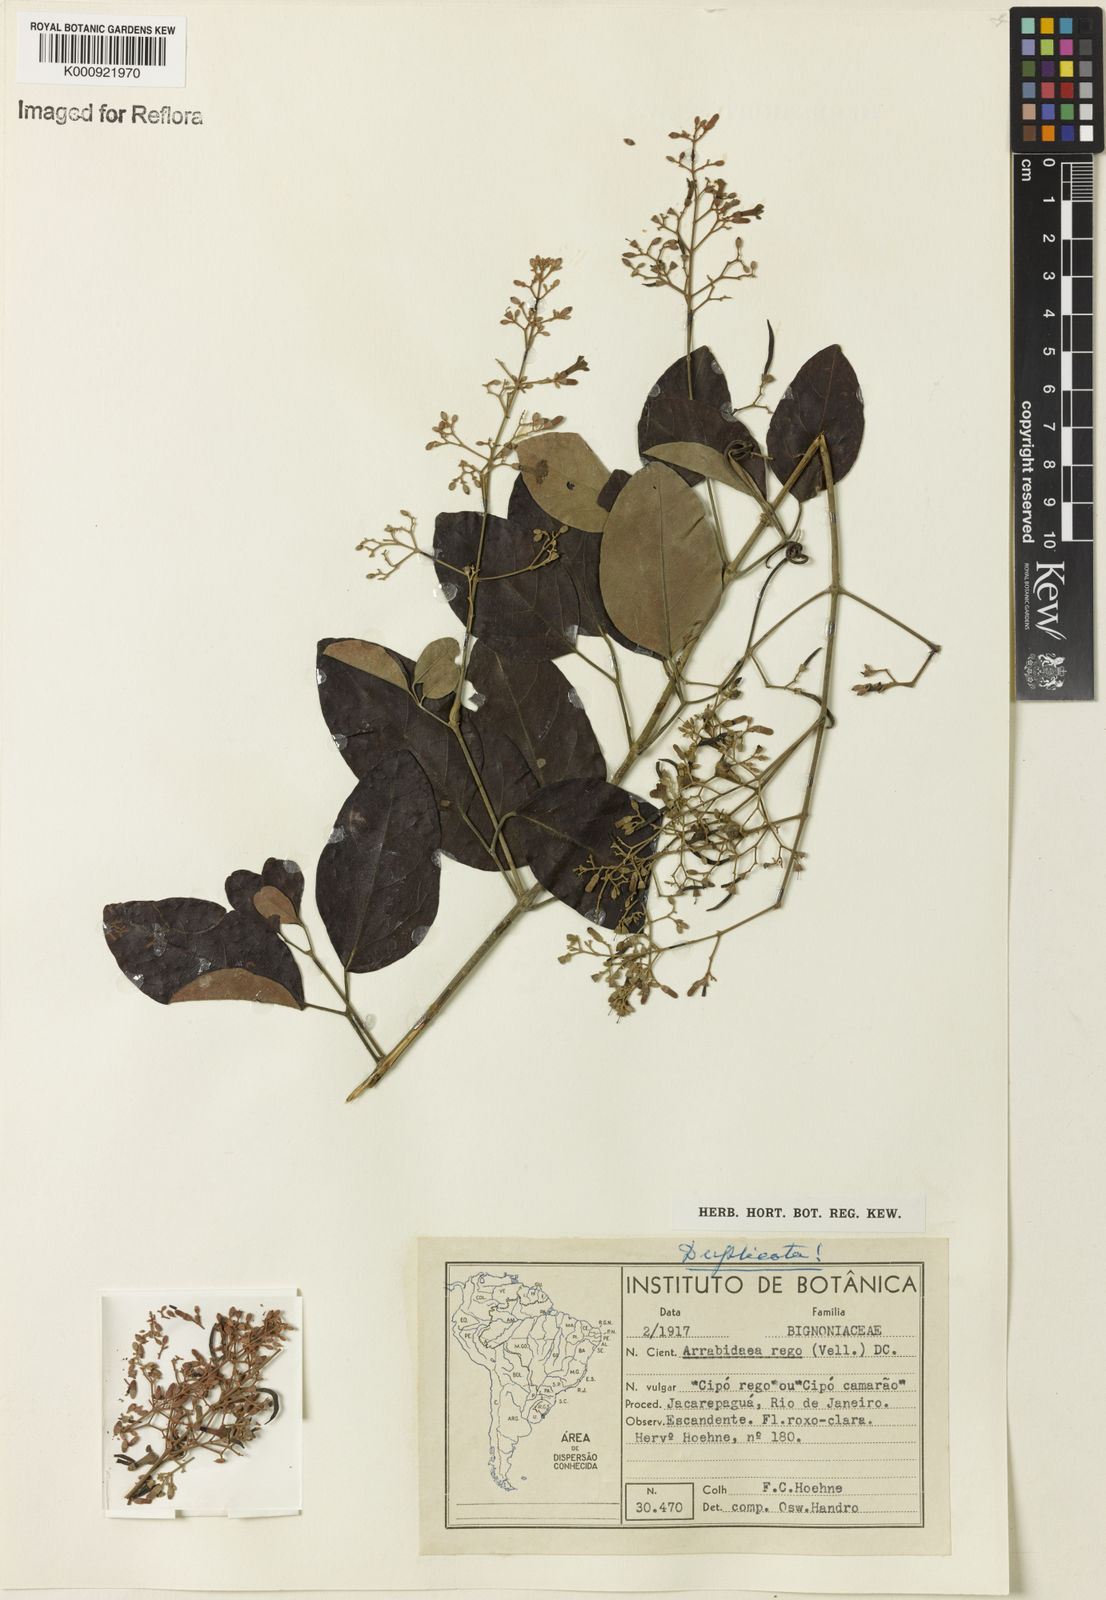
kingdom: Plantae
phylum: Tracheophyta
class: Magnoliopsida
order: Lamiales
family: Bignoniaceae
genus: Fridericia
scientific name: Fridericia rego
